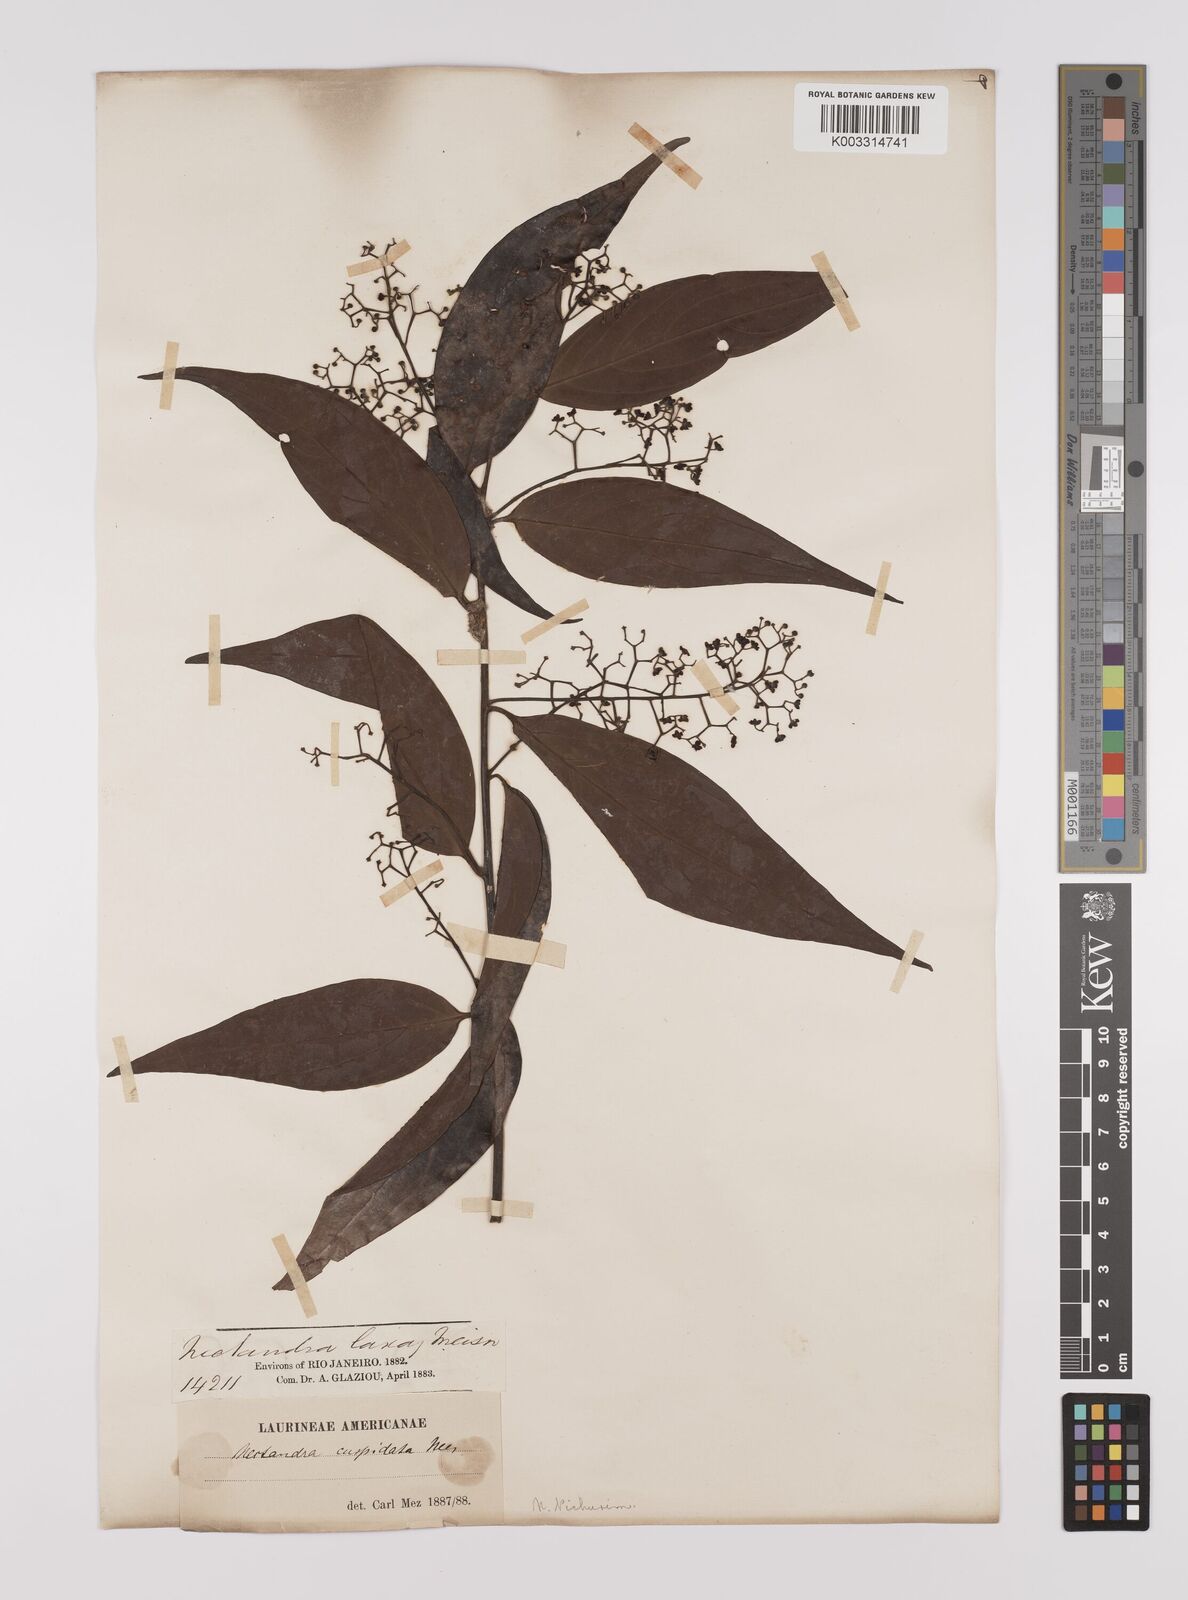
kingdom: Plantae
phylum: Tracheophyta
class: Magnoliopsida
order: Laurales
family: Lauraceae
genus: Nectandra
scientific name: Nectandra cuspidata
